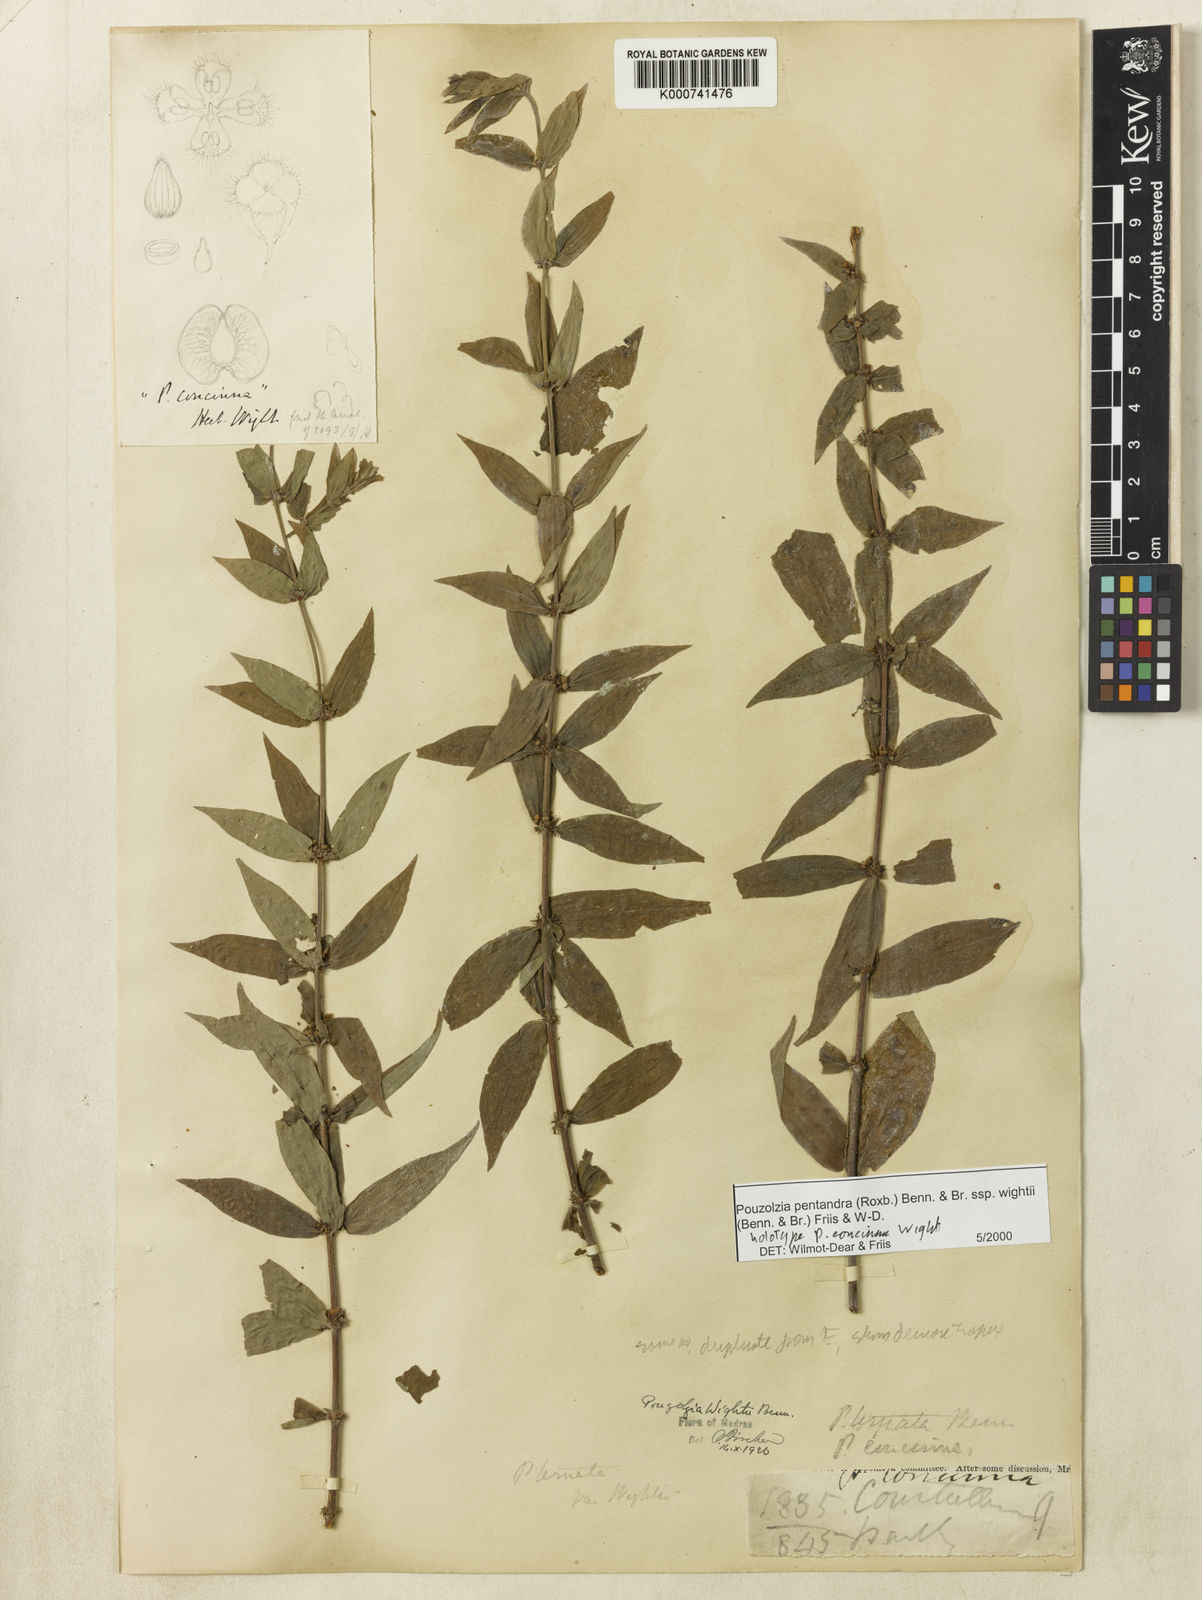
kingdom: Plantae
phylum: Tracheophyta
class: Magnoliopsida
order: Rosales
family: Urticaceae
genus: Gonostegia
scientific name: Gonostegia pentandra
